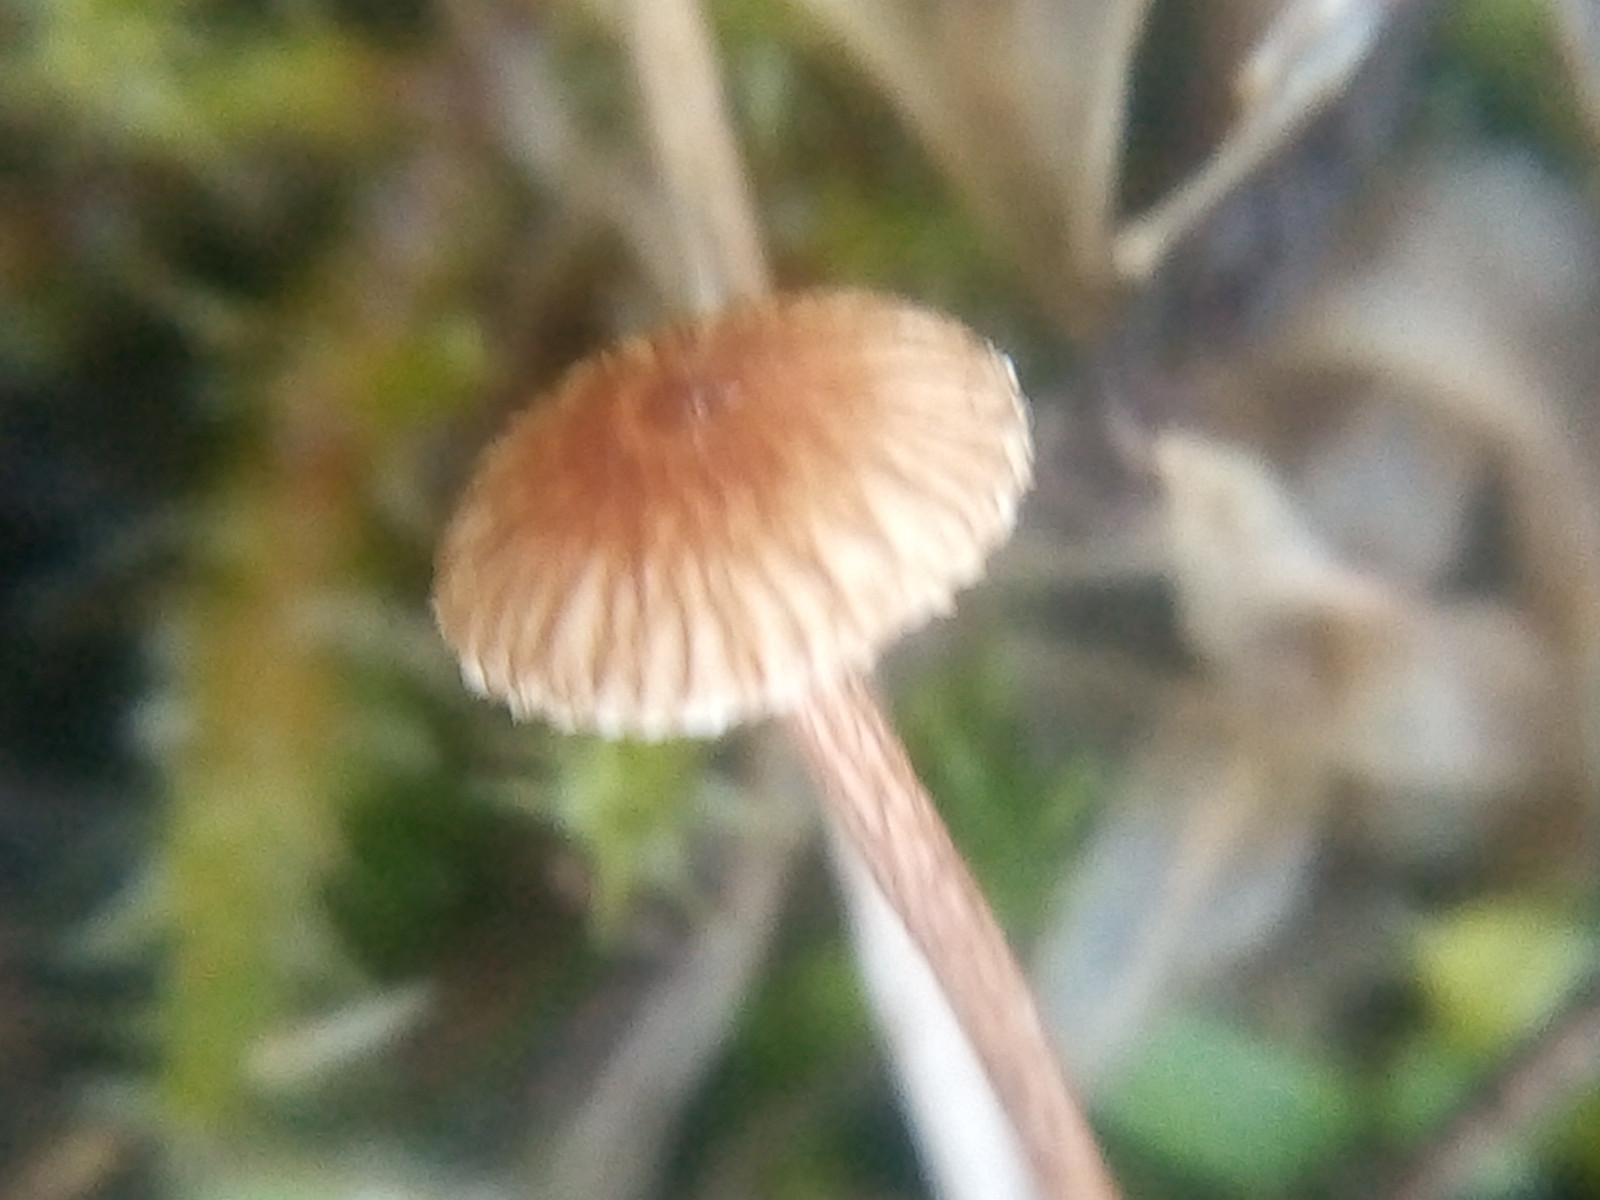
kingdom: Fungi
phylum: Basidiomycota
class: Agaricomycetes
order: Agaricales
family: Marasmiaceae
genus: Crinipellis
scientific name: Crinipellis scabella
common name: børstefod
